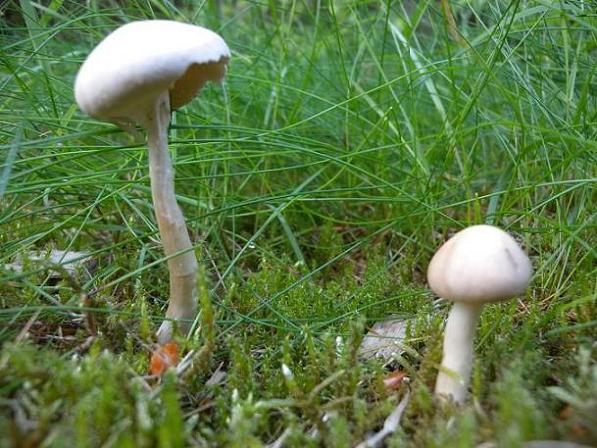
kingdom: Fungi
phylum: Basidiomycota
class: Agaricomycetes
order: Agaricales
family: Strophariaceae
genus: Agrocybe
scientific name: Agrocybe praecox
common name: tidlig agerhat
